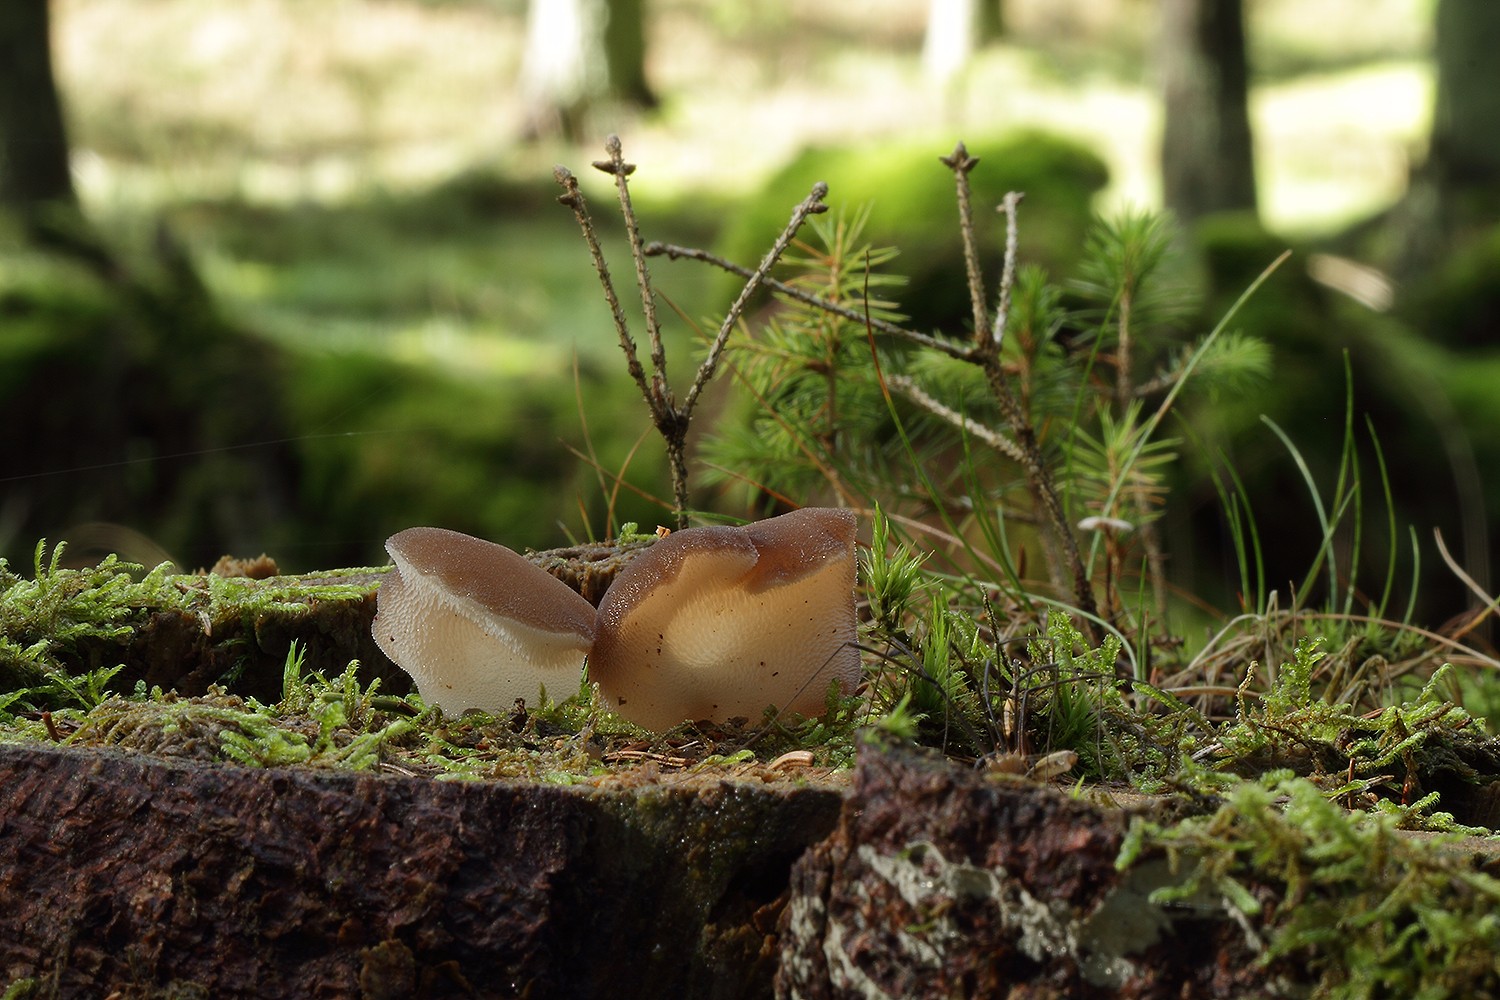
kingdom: Fungi
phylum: Basidiomycota
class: Agaricomycetes
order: Auriculariales
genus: Pseudohydnum
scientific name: Pseudohydnum gelatinosum
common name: bævretand
